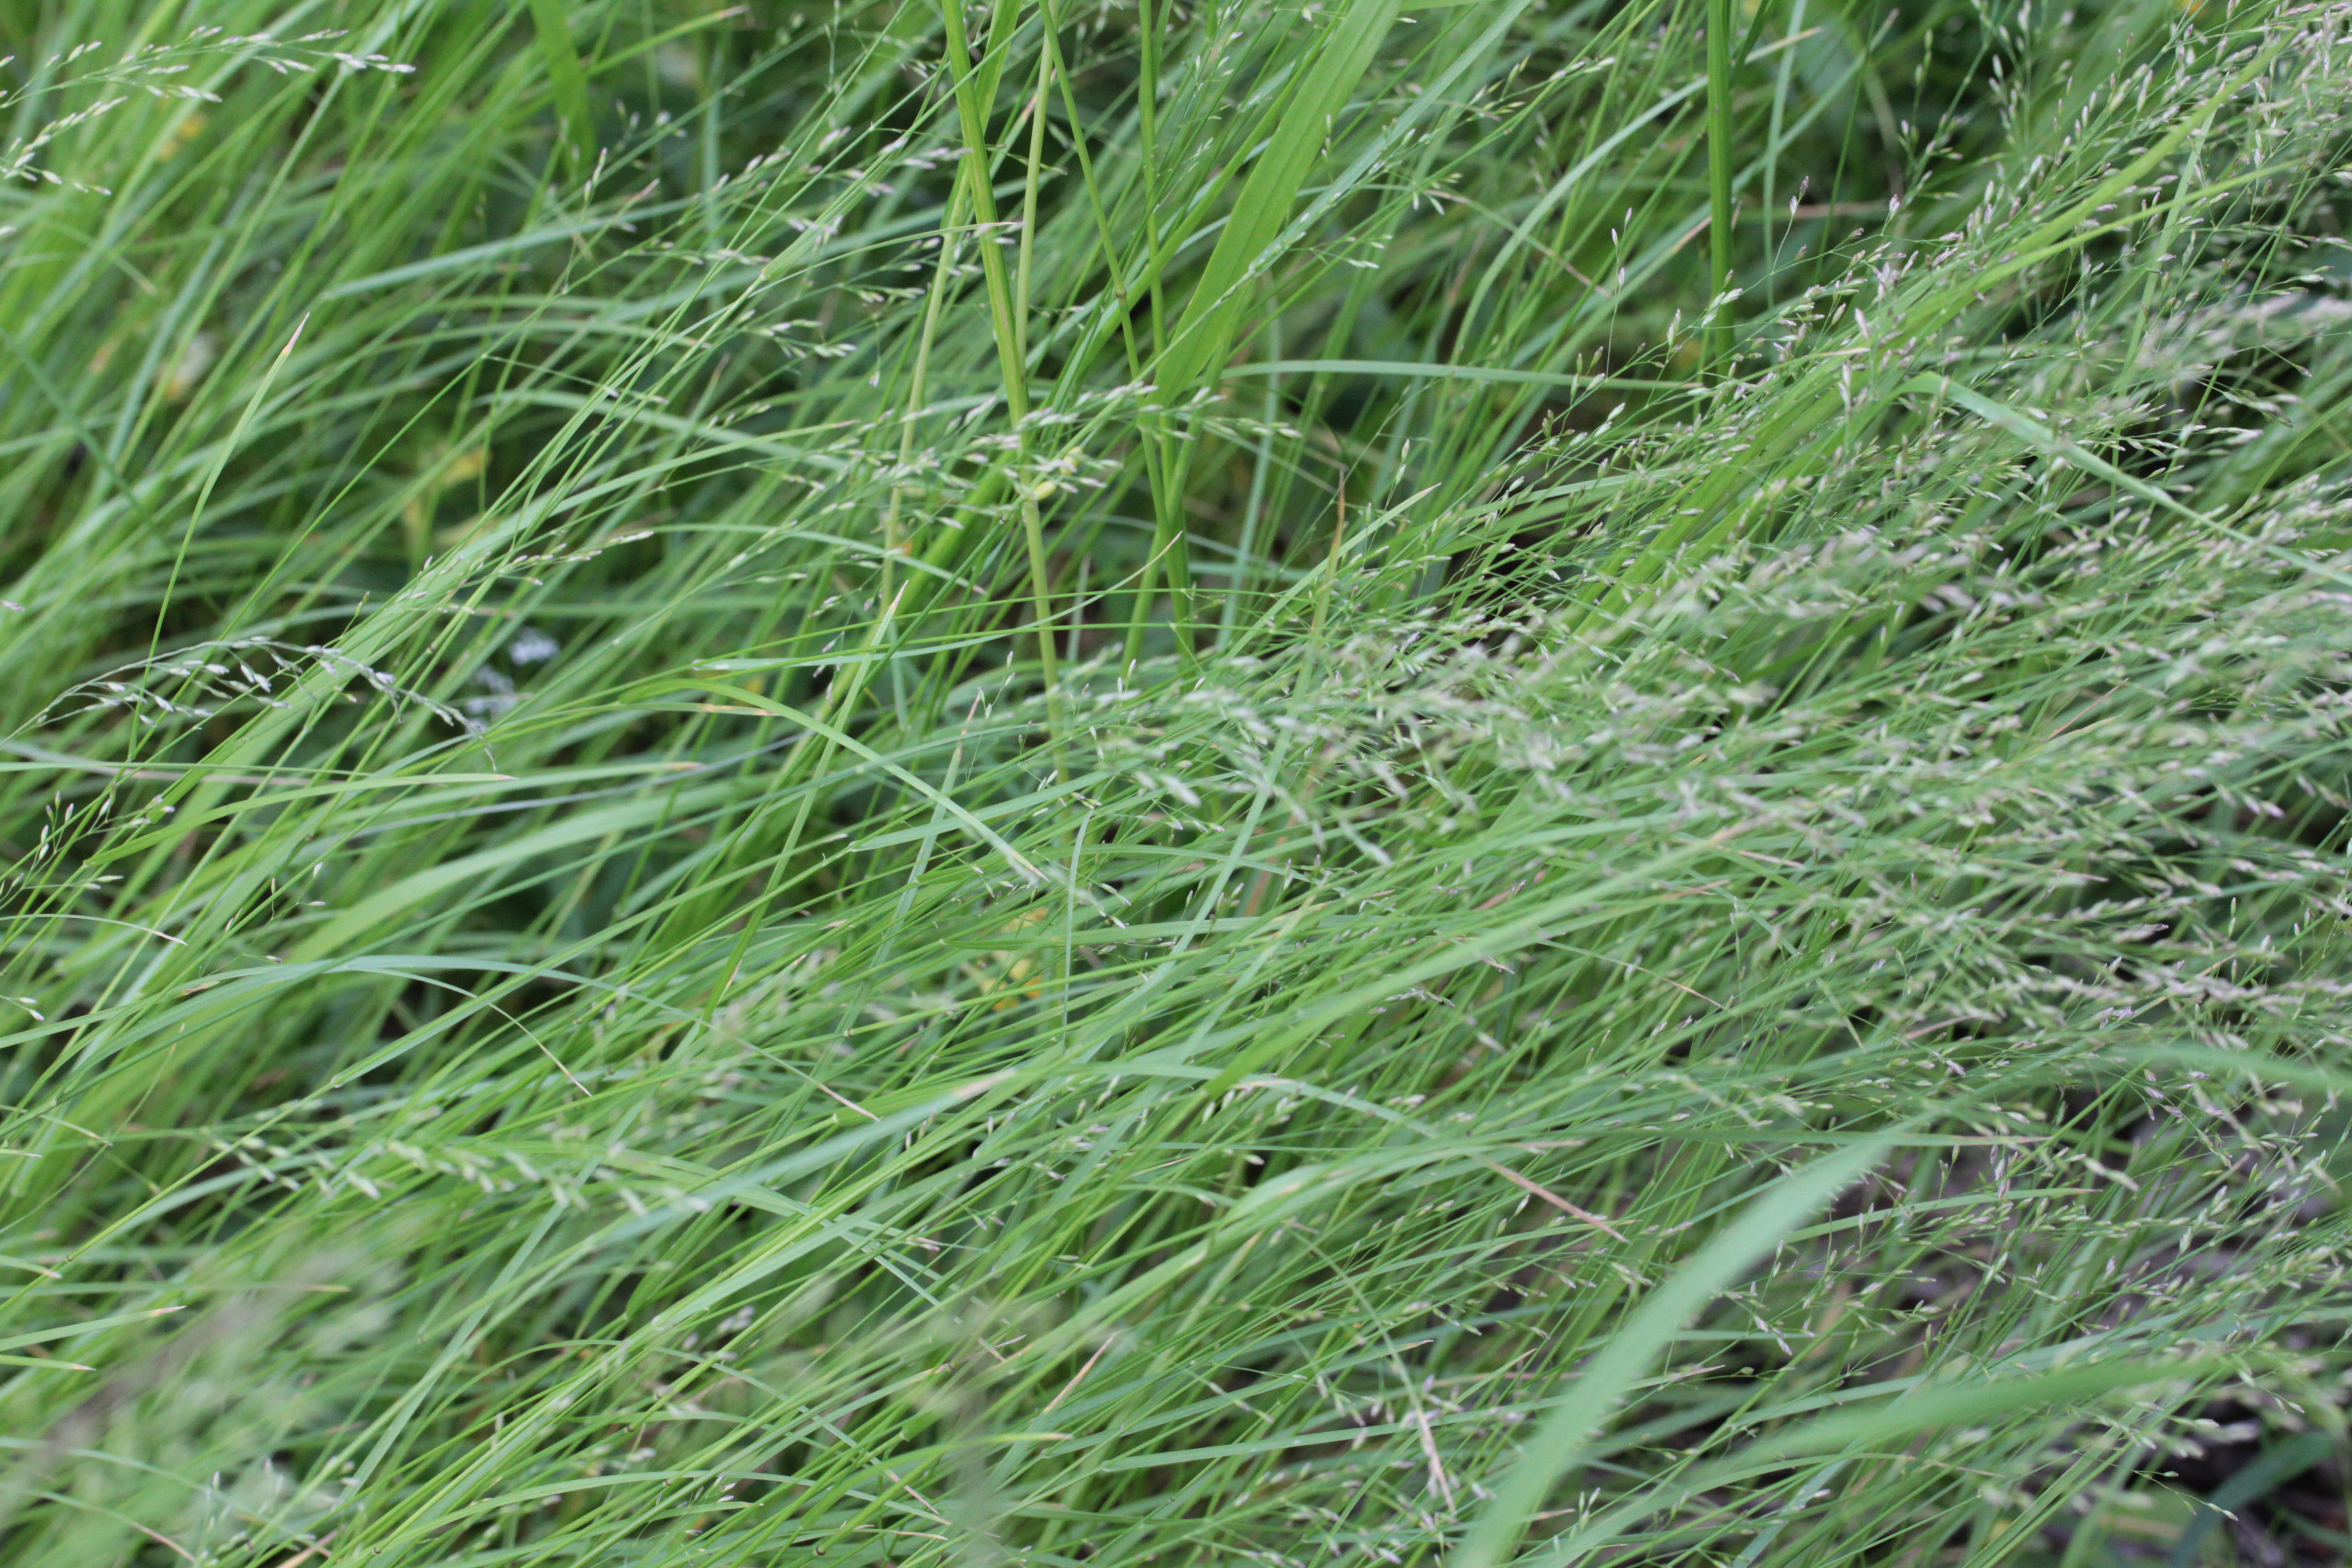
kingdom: Plantae
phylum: Tracheophyta
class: Liliopsida
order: Poales
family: Poaceae
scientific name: Poaceae
